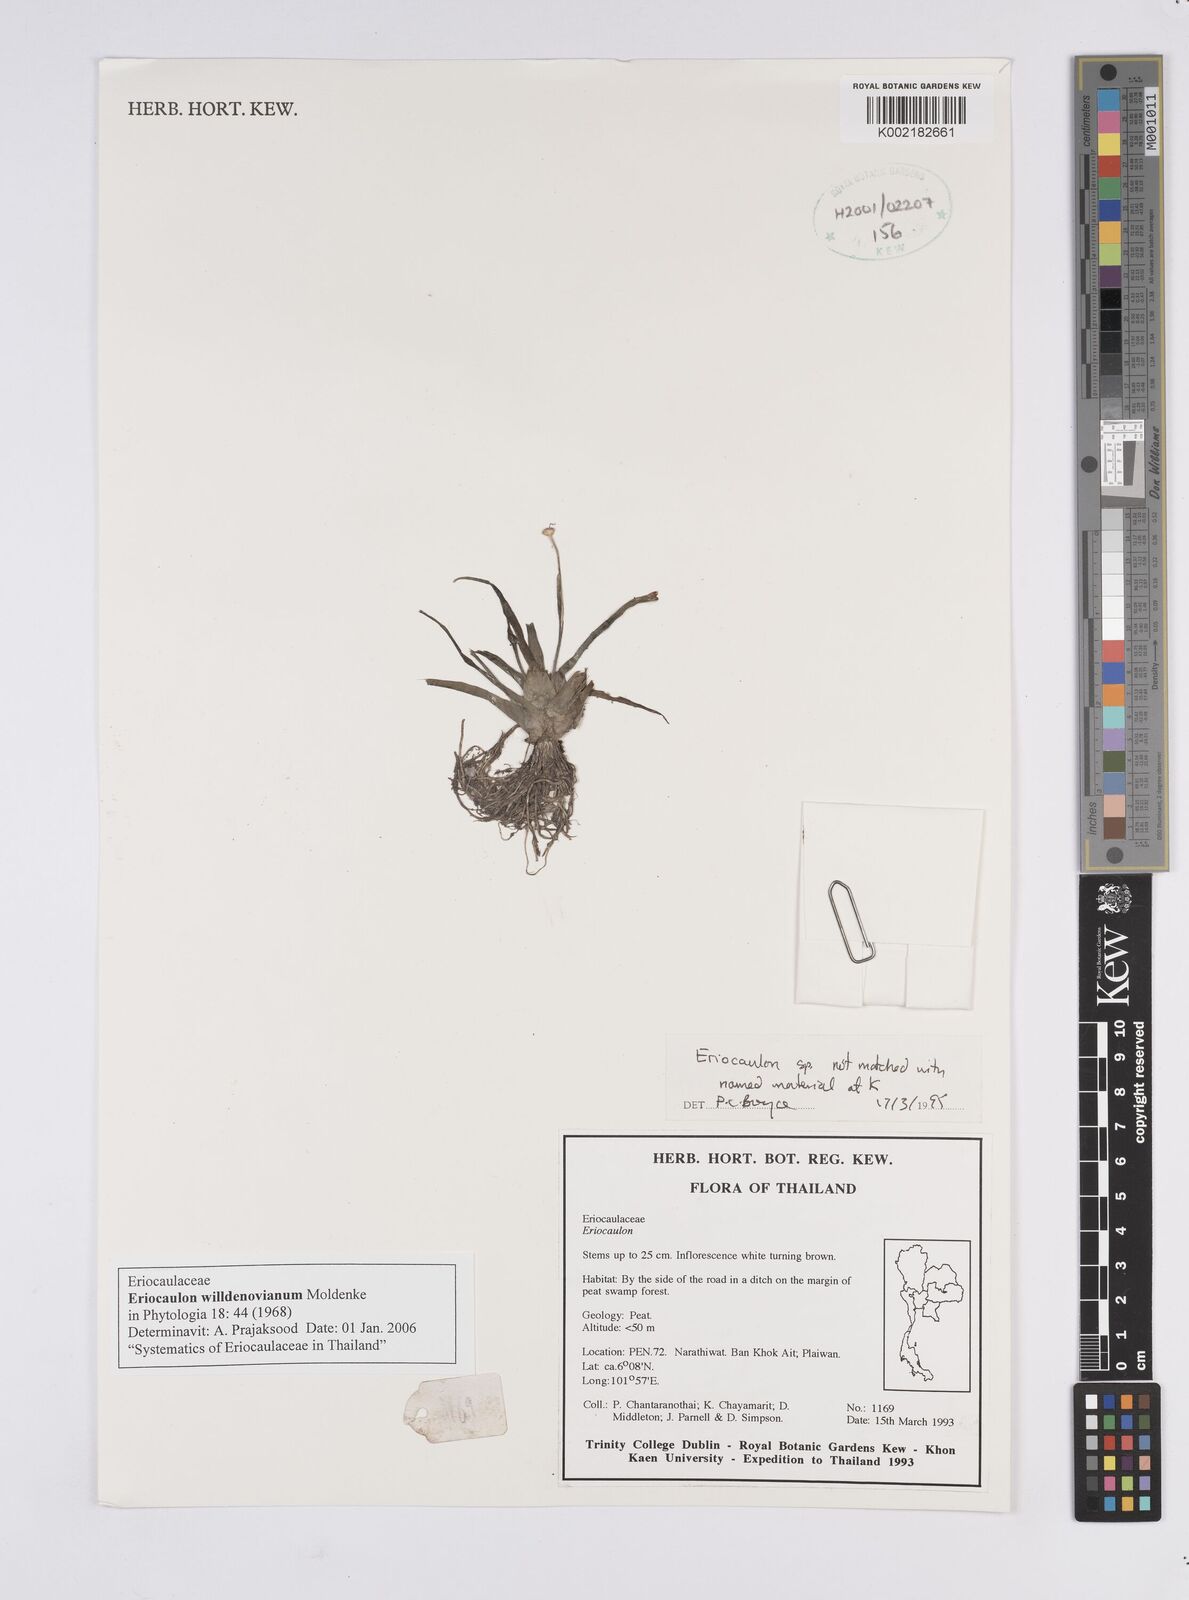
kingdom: Plantae
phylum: Tracheophyta
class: Liliopsida
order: Poales
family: Eriocaulaceae
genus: Eriocaulon
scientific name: Eriocaulon willdenovianum
